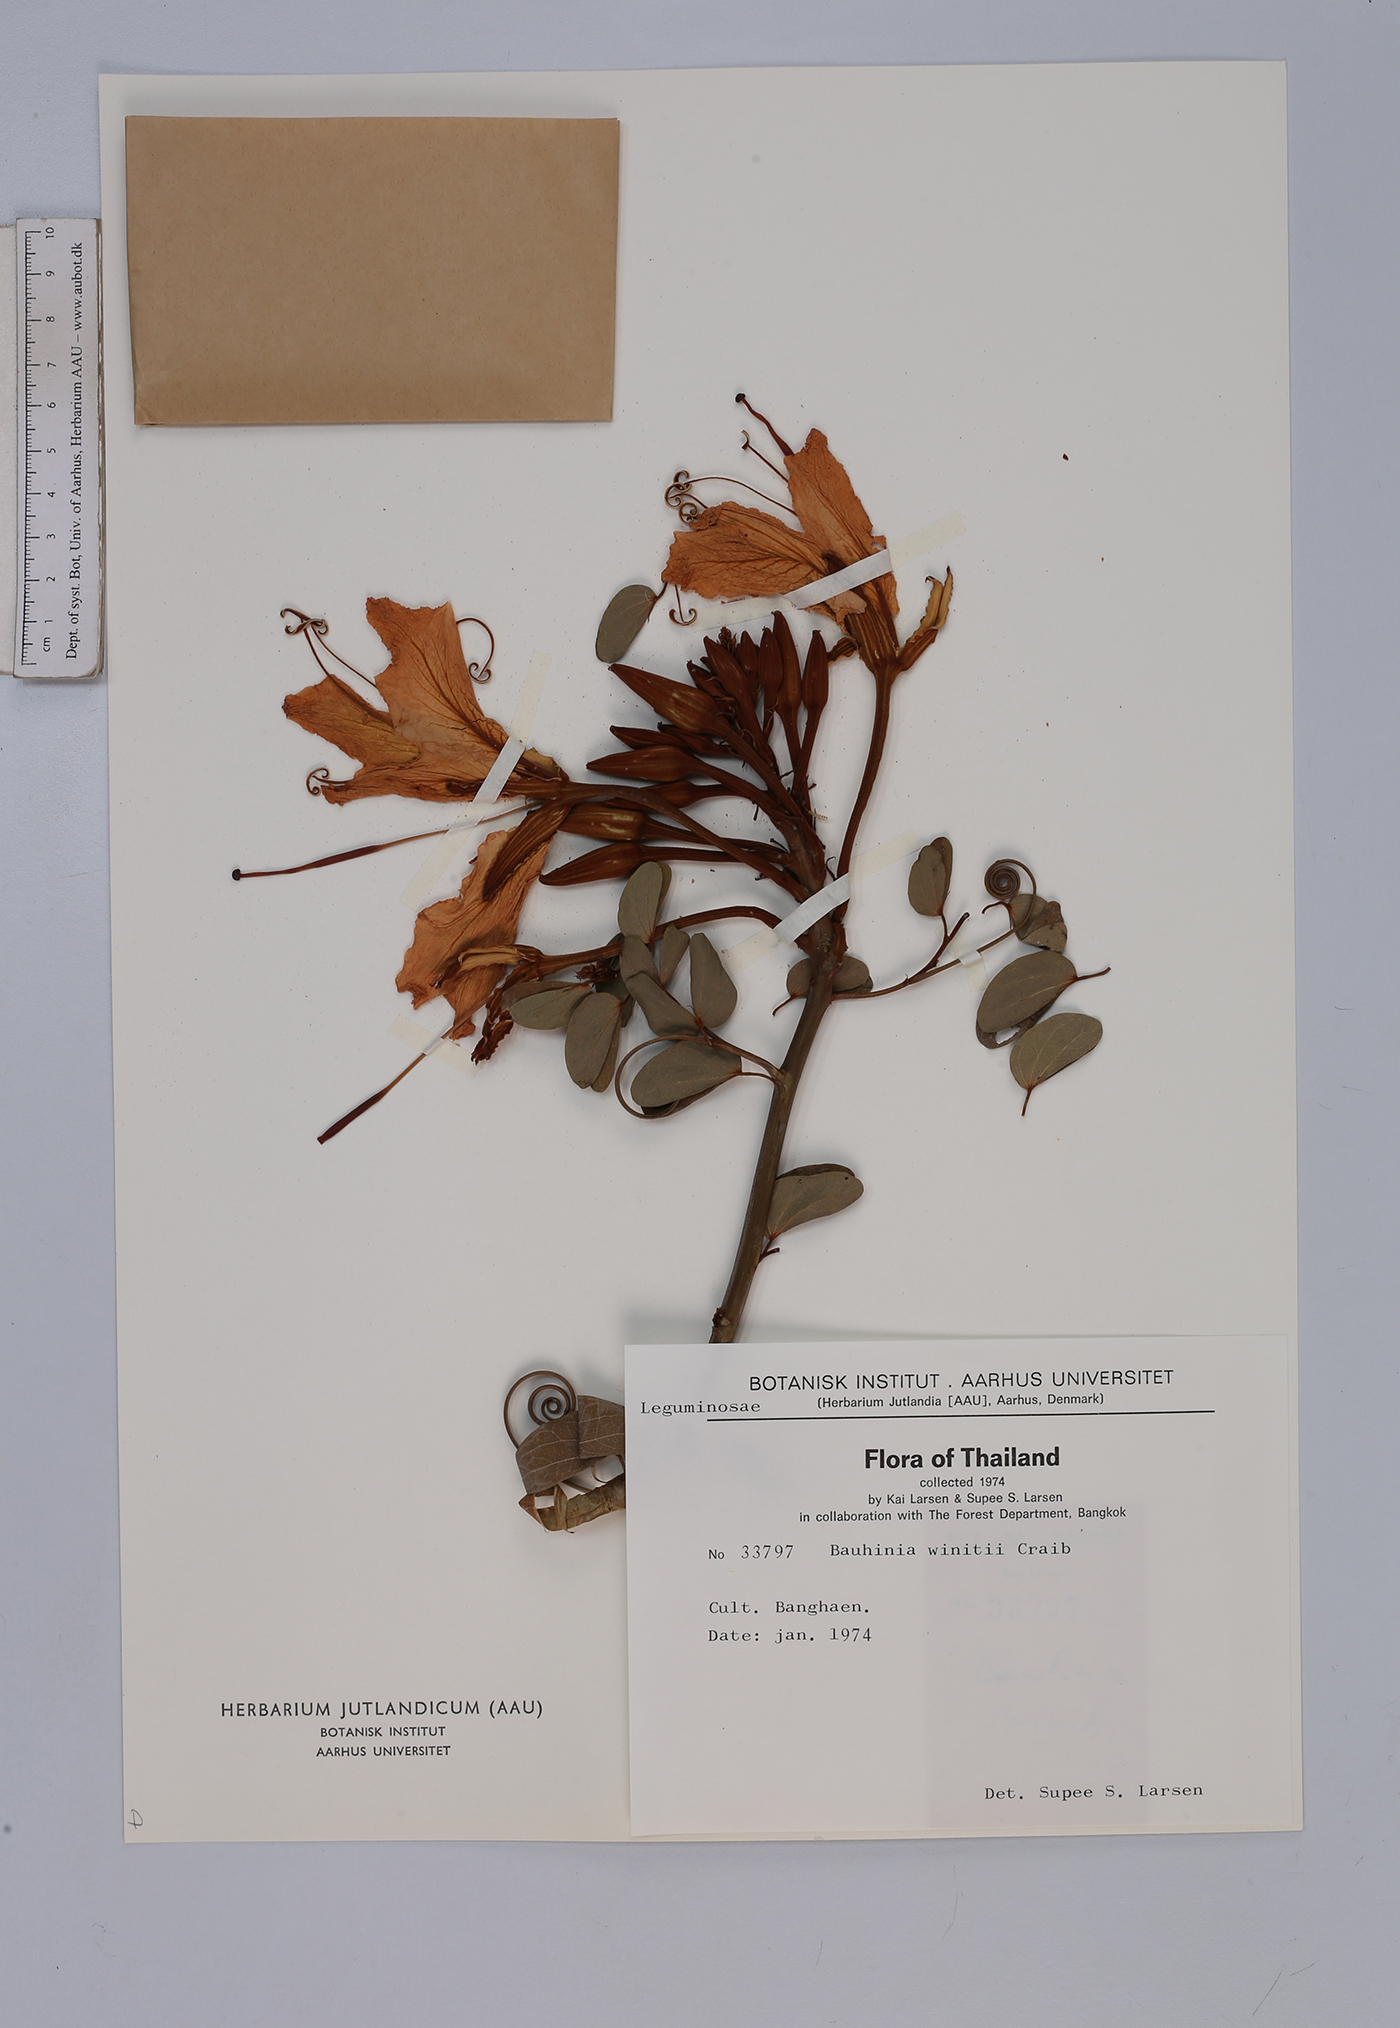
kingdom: Plantae
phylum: Tracheophyta
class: Magnoliopsida
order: Fabales
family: Fabaceae
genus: Lysiphyllum
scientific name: Lysiphyllum winitii
